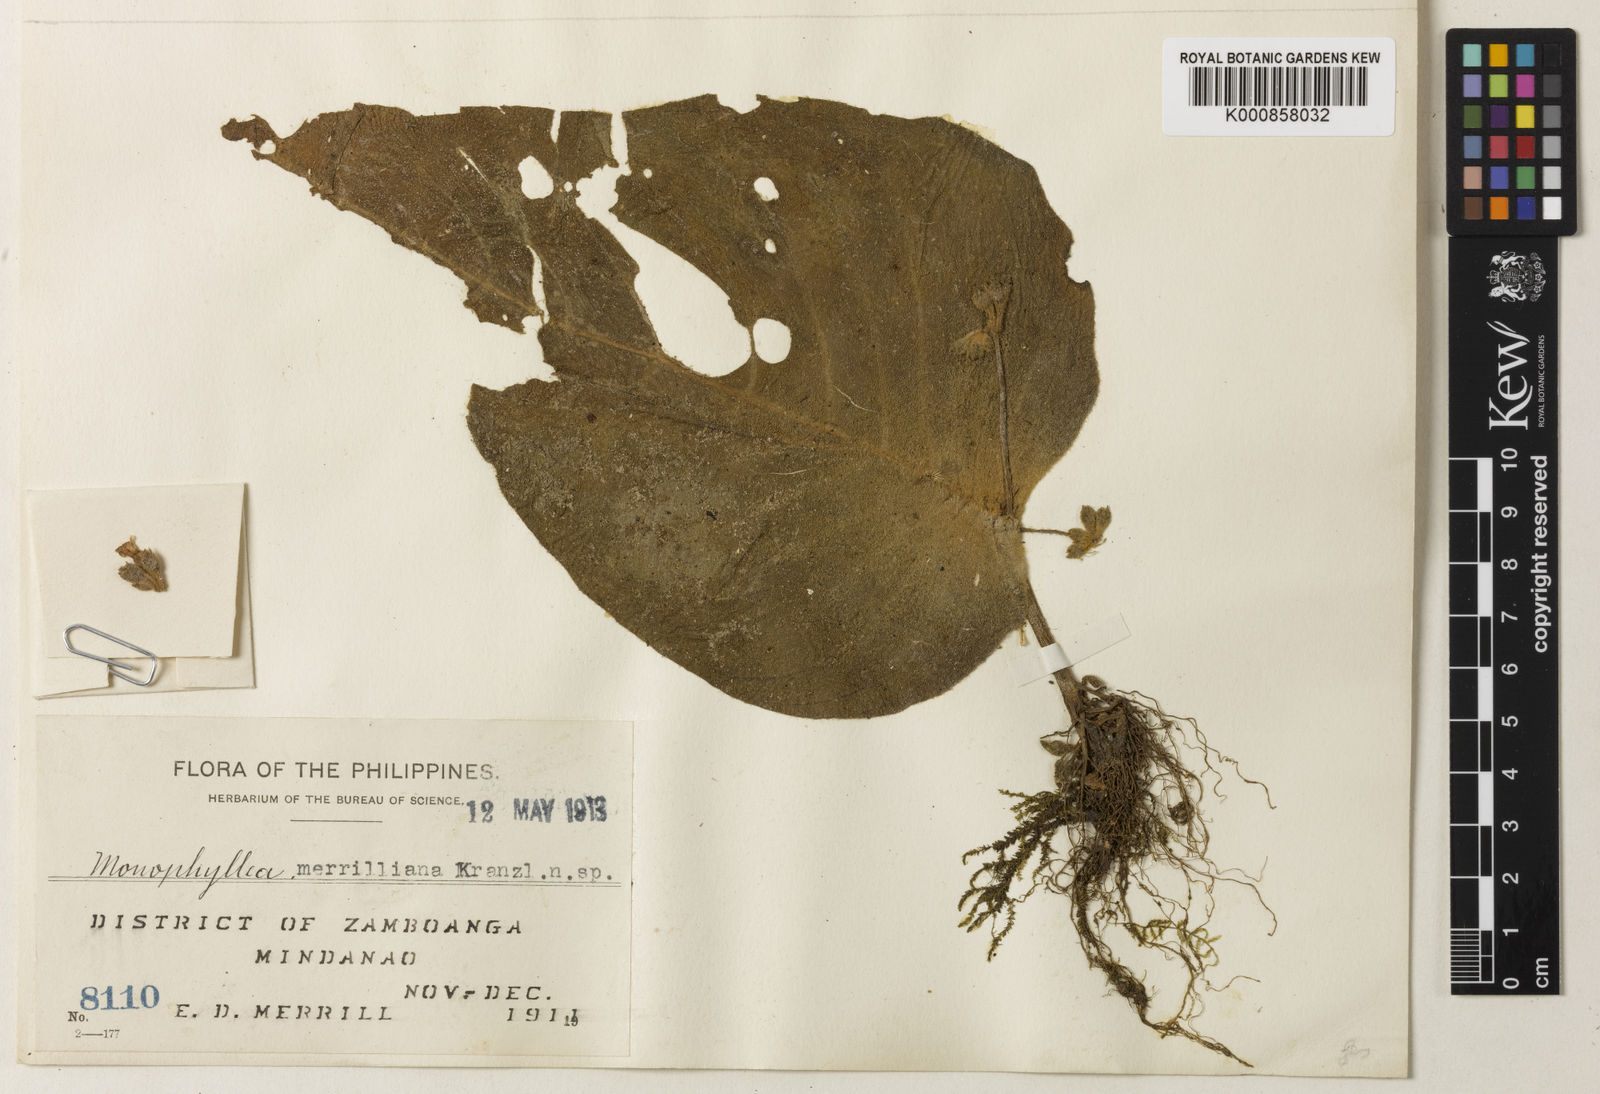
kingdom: Plantae
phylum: Tracheophyta
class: Magnoliopsida
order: Lamiales
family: Gesneriaceae
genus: Monophyllaea
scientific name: Monophyllaea merrilliana
